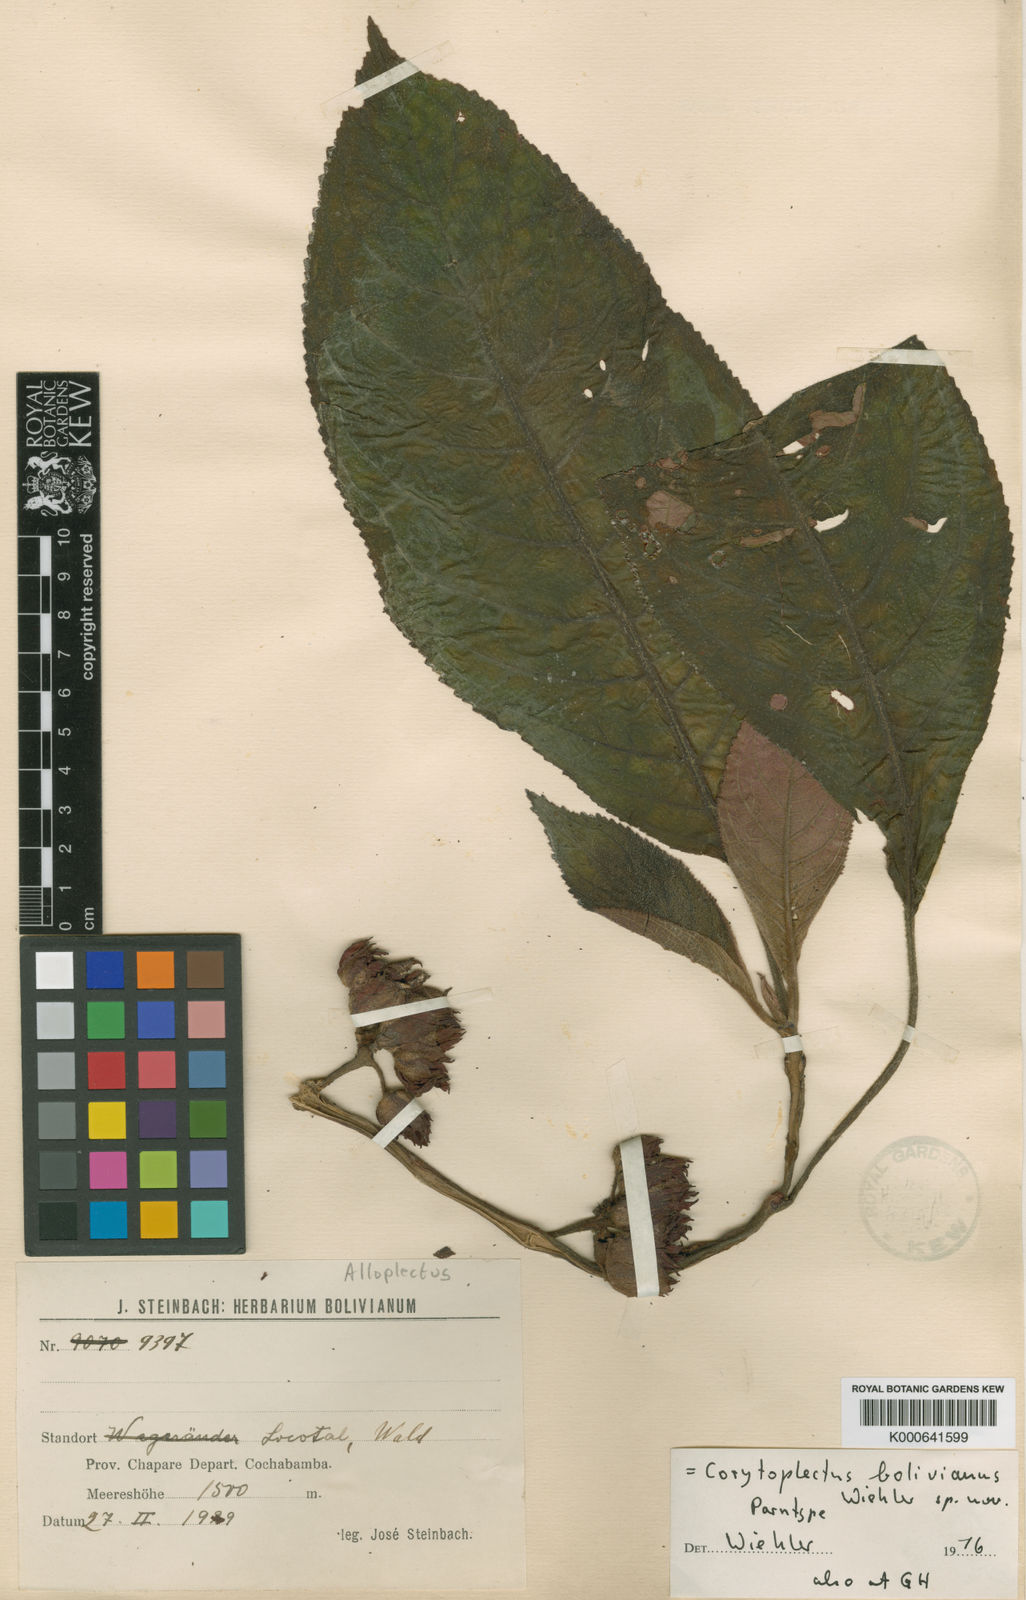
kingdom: Plantae
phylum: Tracheophyta
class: Magnoliopsida
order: Lamiales
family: Gesneriaceae
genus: Corytoplectus
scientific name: Corytoplectus
